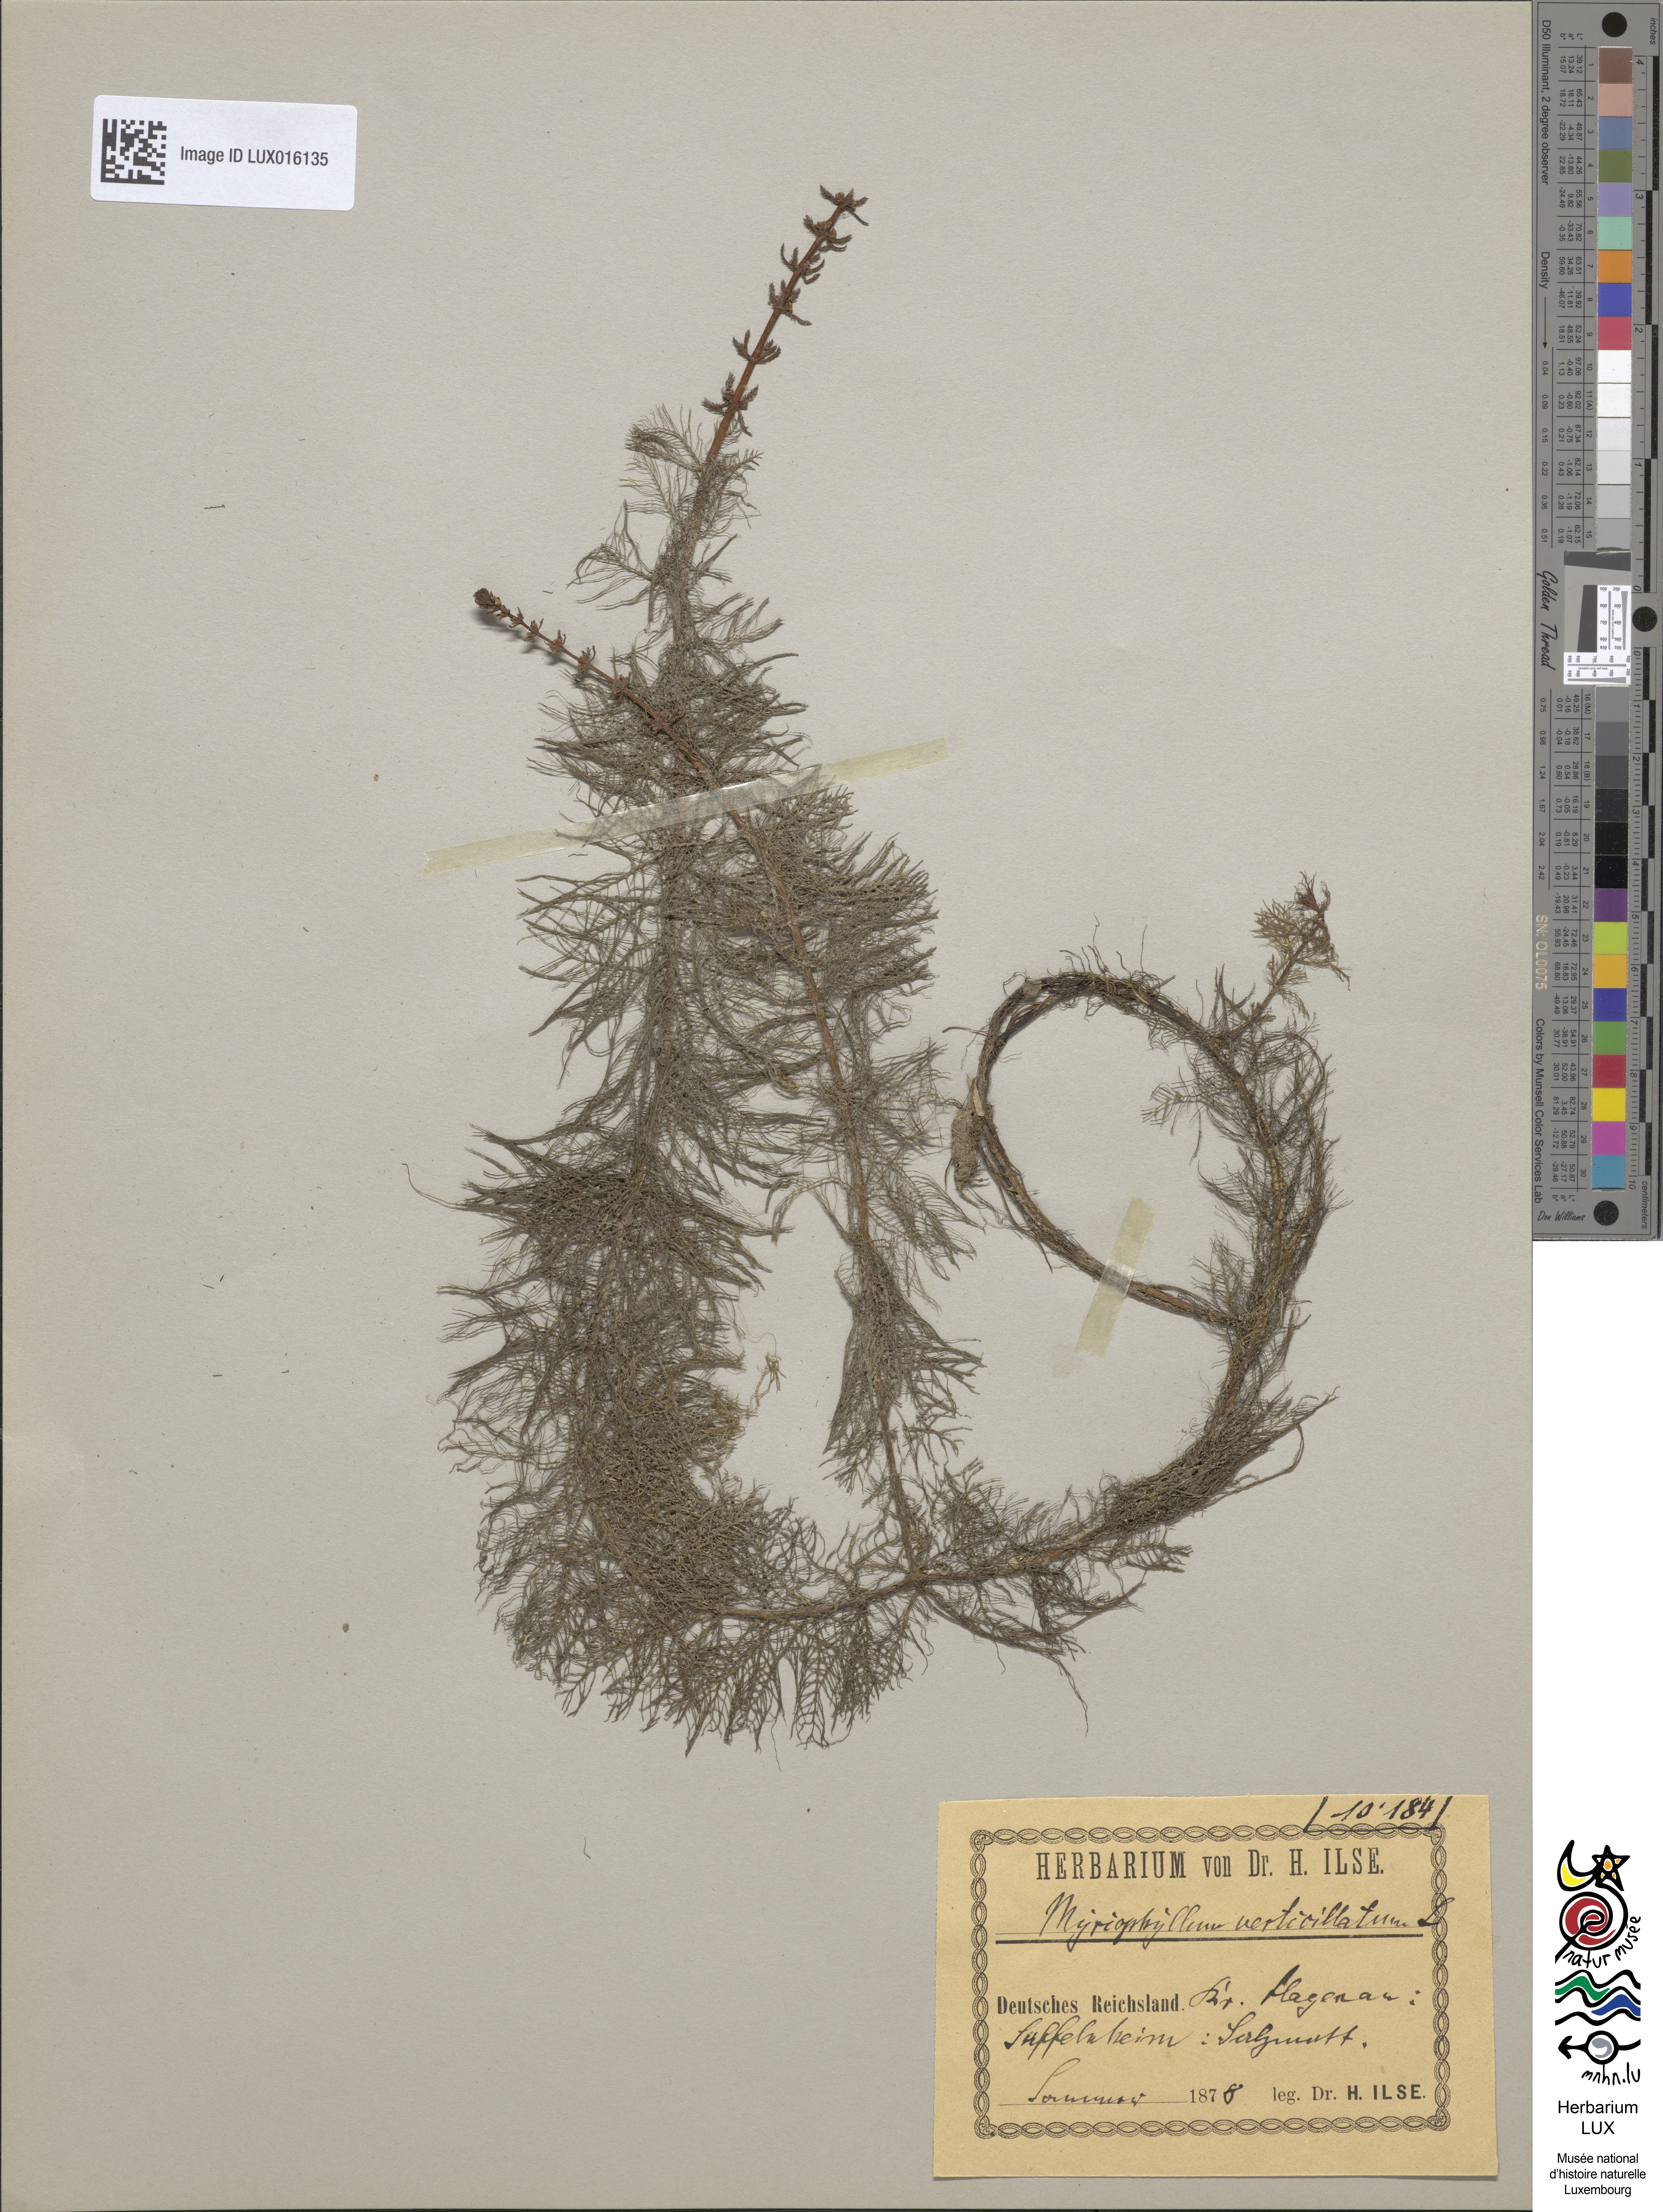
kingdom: Plantae
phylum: Tracheophyta
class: Magnoliopsida
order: Saxifragales
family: Haloragaceae
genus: Myriophyllum
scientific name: Myriophyllum verticillatum
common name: Whorled water-milfoil
